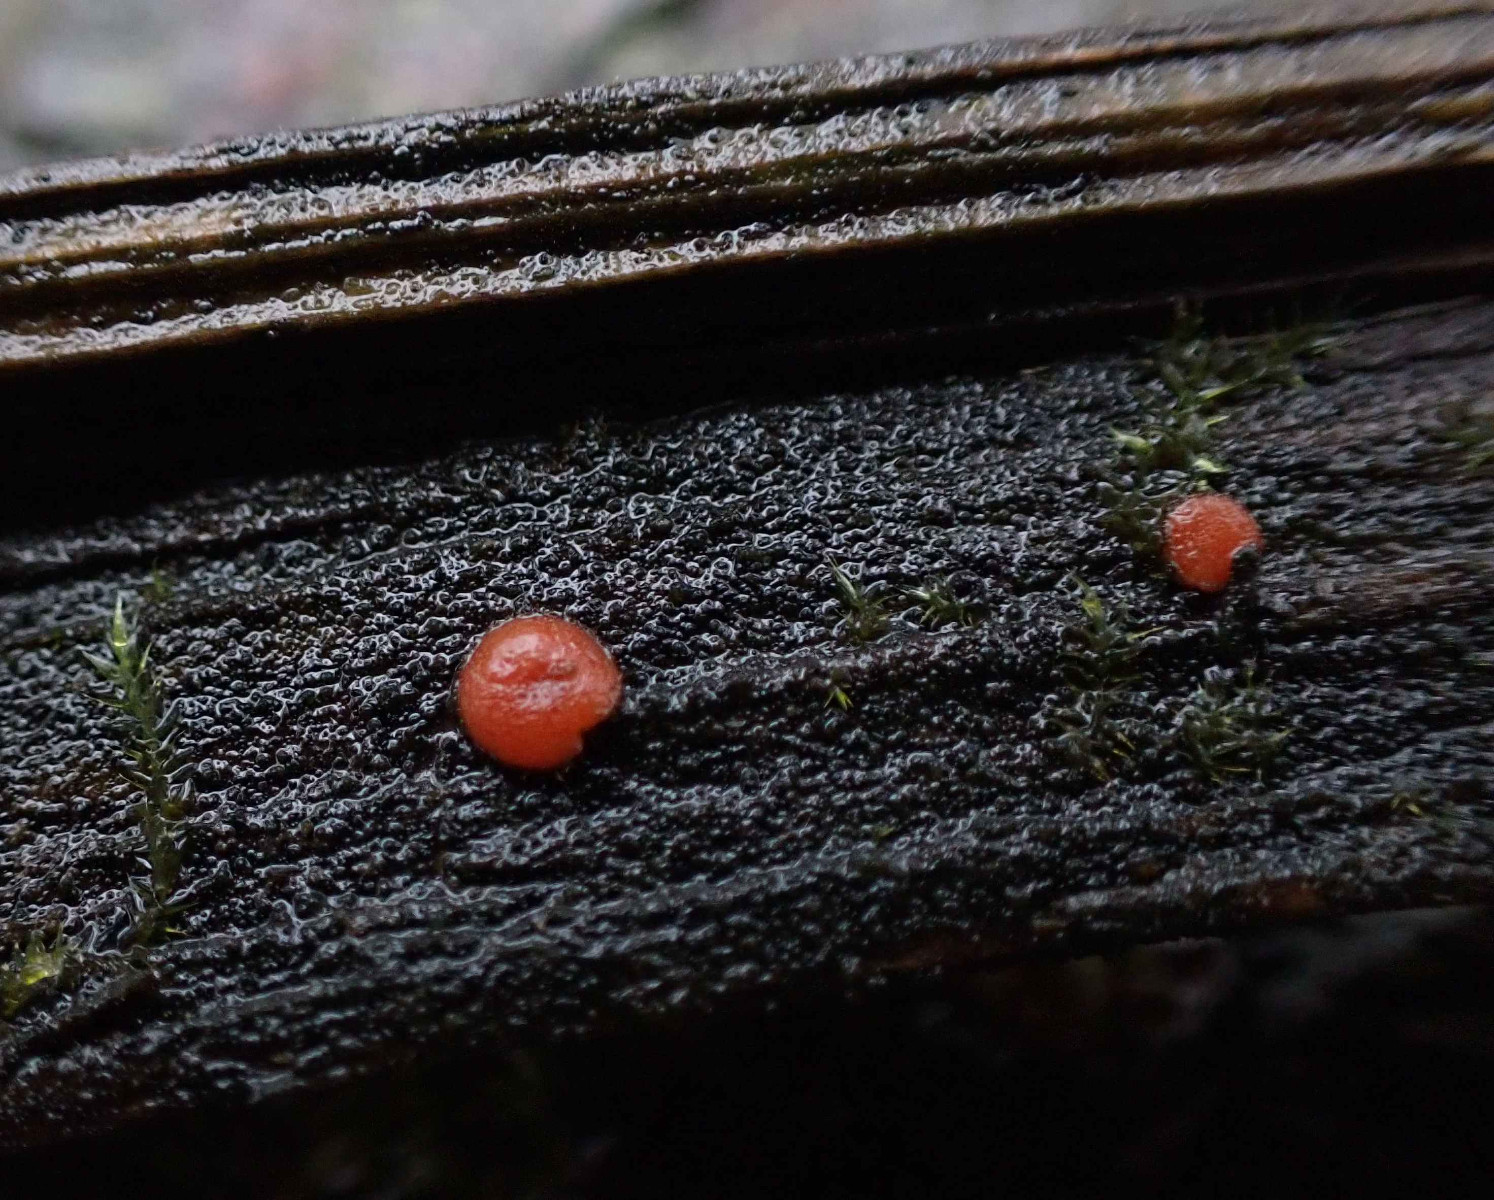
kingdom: Fungi
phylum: Ascomycota
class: Pezizomycetes
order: Pezizales
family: Pyronemataceae
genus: Scutellinia
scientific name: Scutellinia
